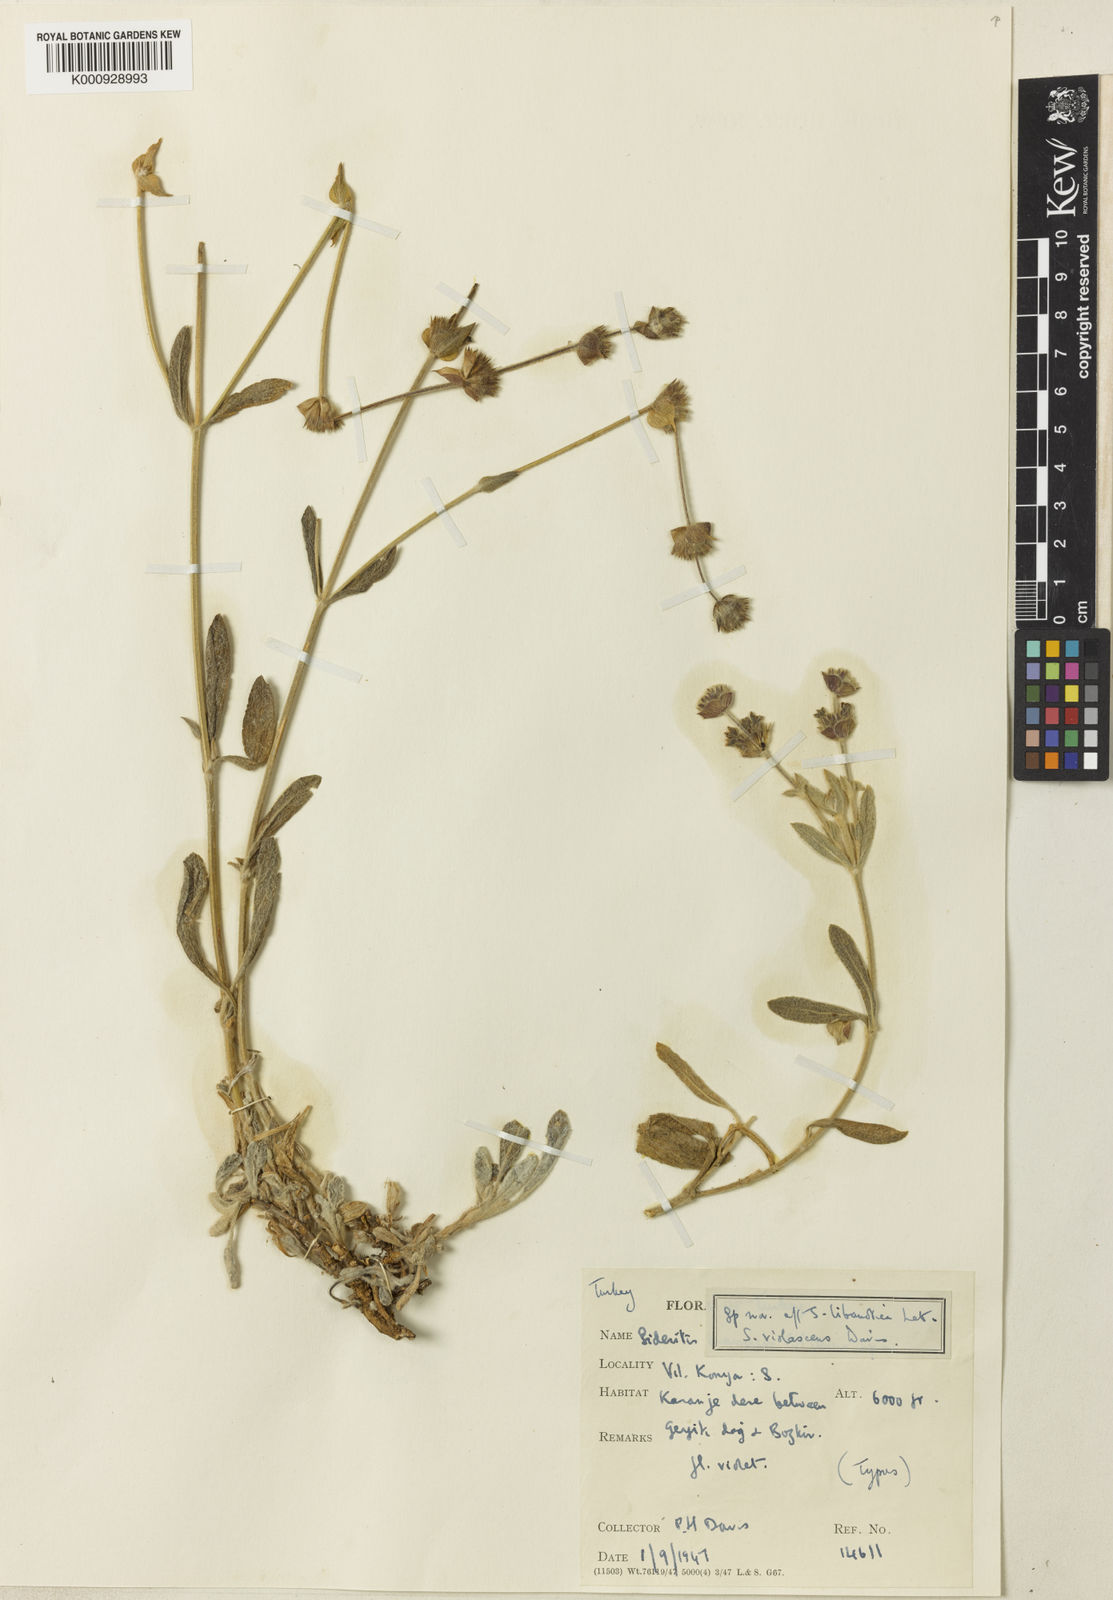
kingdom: Plantae
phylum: Tracheophyta
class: Magnoliopsida
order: Lamiales
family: Lamiaceae
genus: Sideritis
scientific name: Sideritis libanotica
